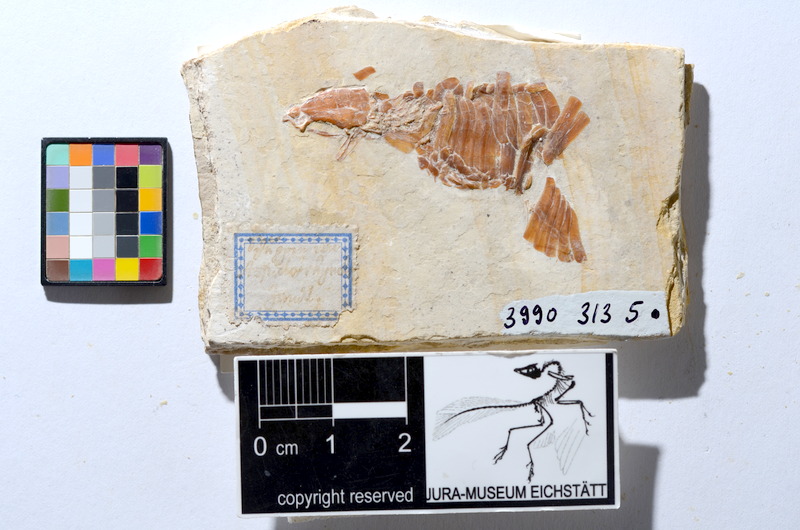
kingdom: Animalia
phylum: Chordata
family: Pleuropholidae
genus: Pleuropholis
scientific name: Pleuropholis
